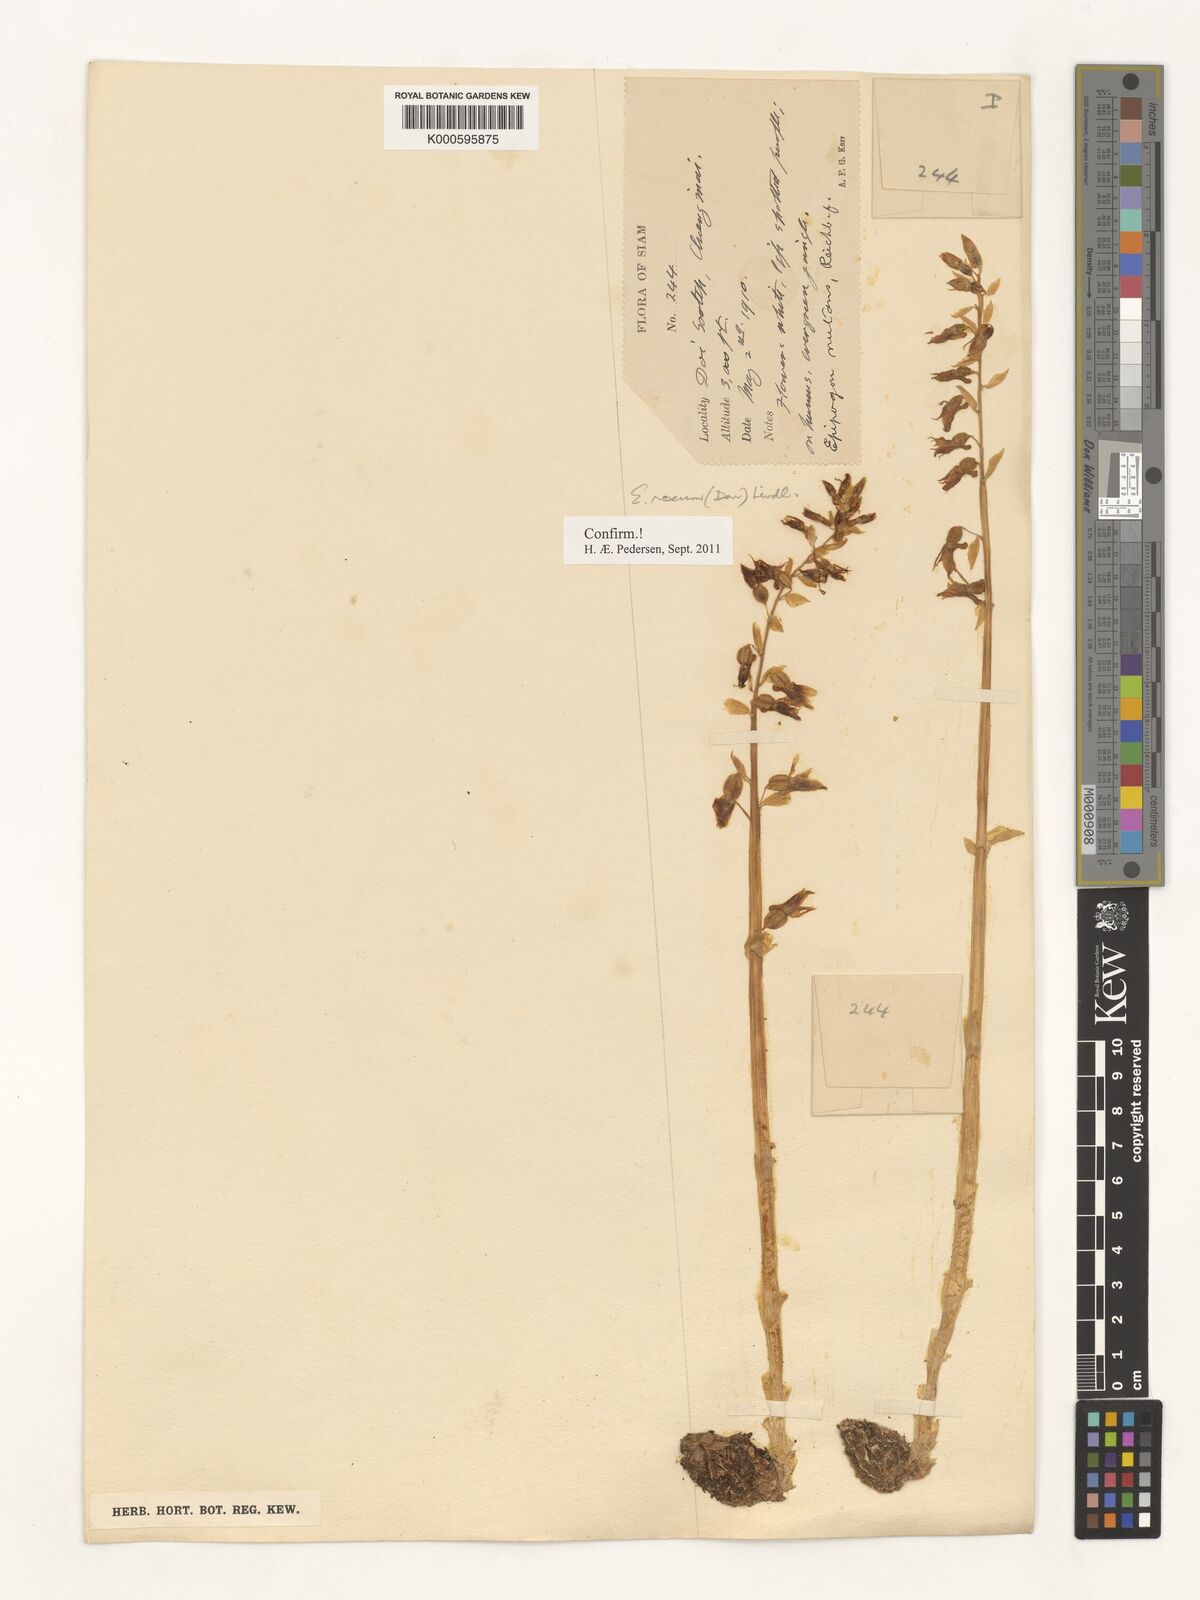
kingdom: Plantae
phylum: Tracheophyta
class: Liliopsida
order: Asparagales
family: Orchidaceae
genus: Epipogium
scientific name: Epipogium roseum
